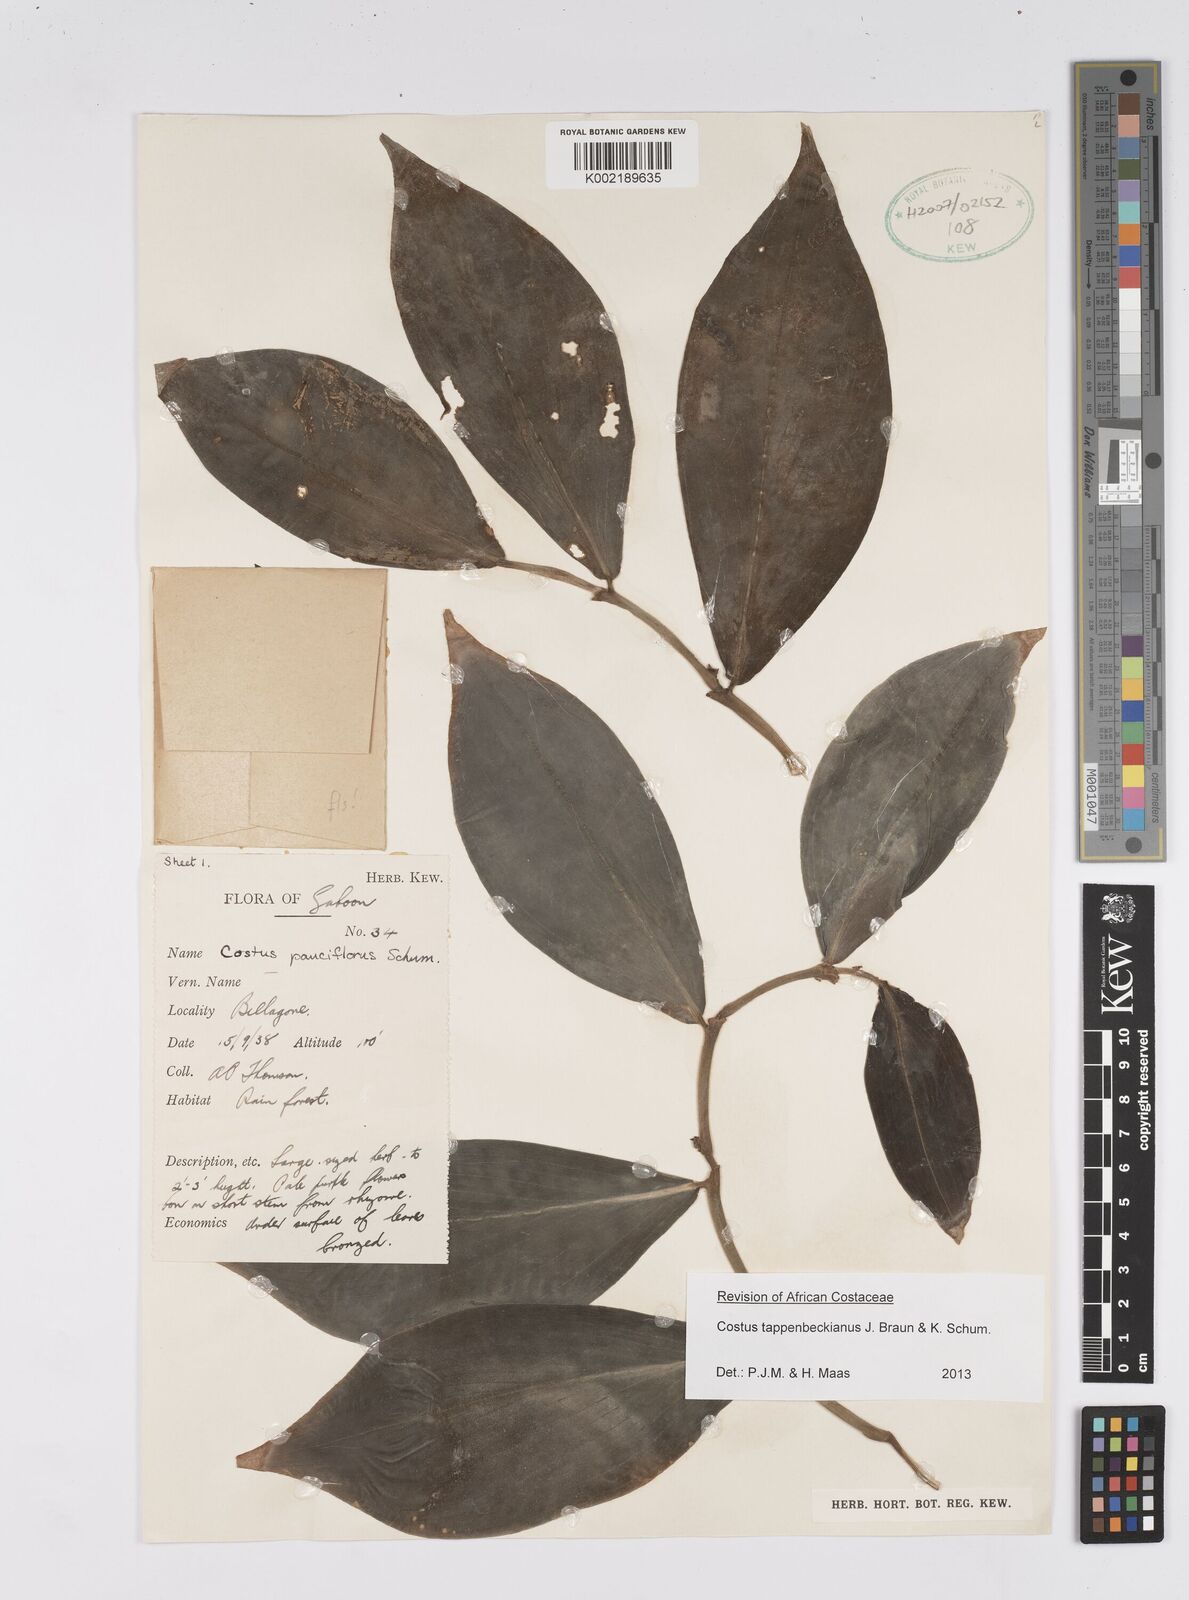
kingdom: Plantae
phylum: Tracheophyta
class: Liliopsida
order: Zingiberales
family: Costaceae
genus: Costus
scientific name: Costus tappenbeckianus
